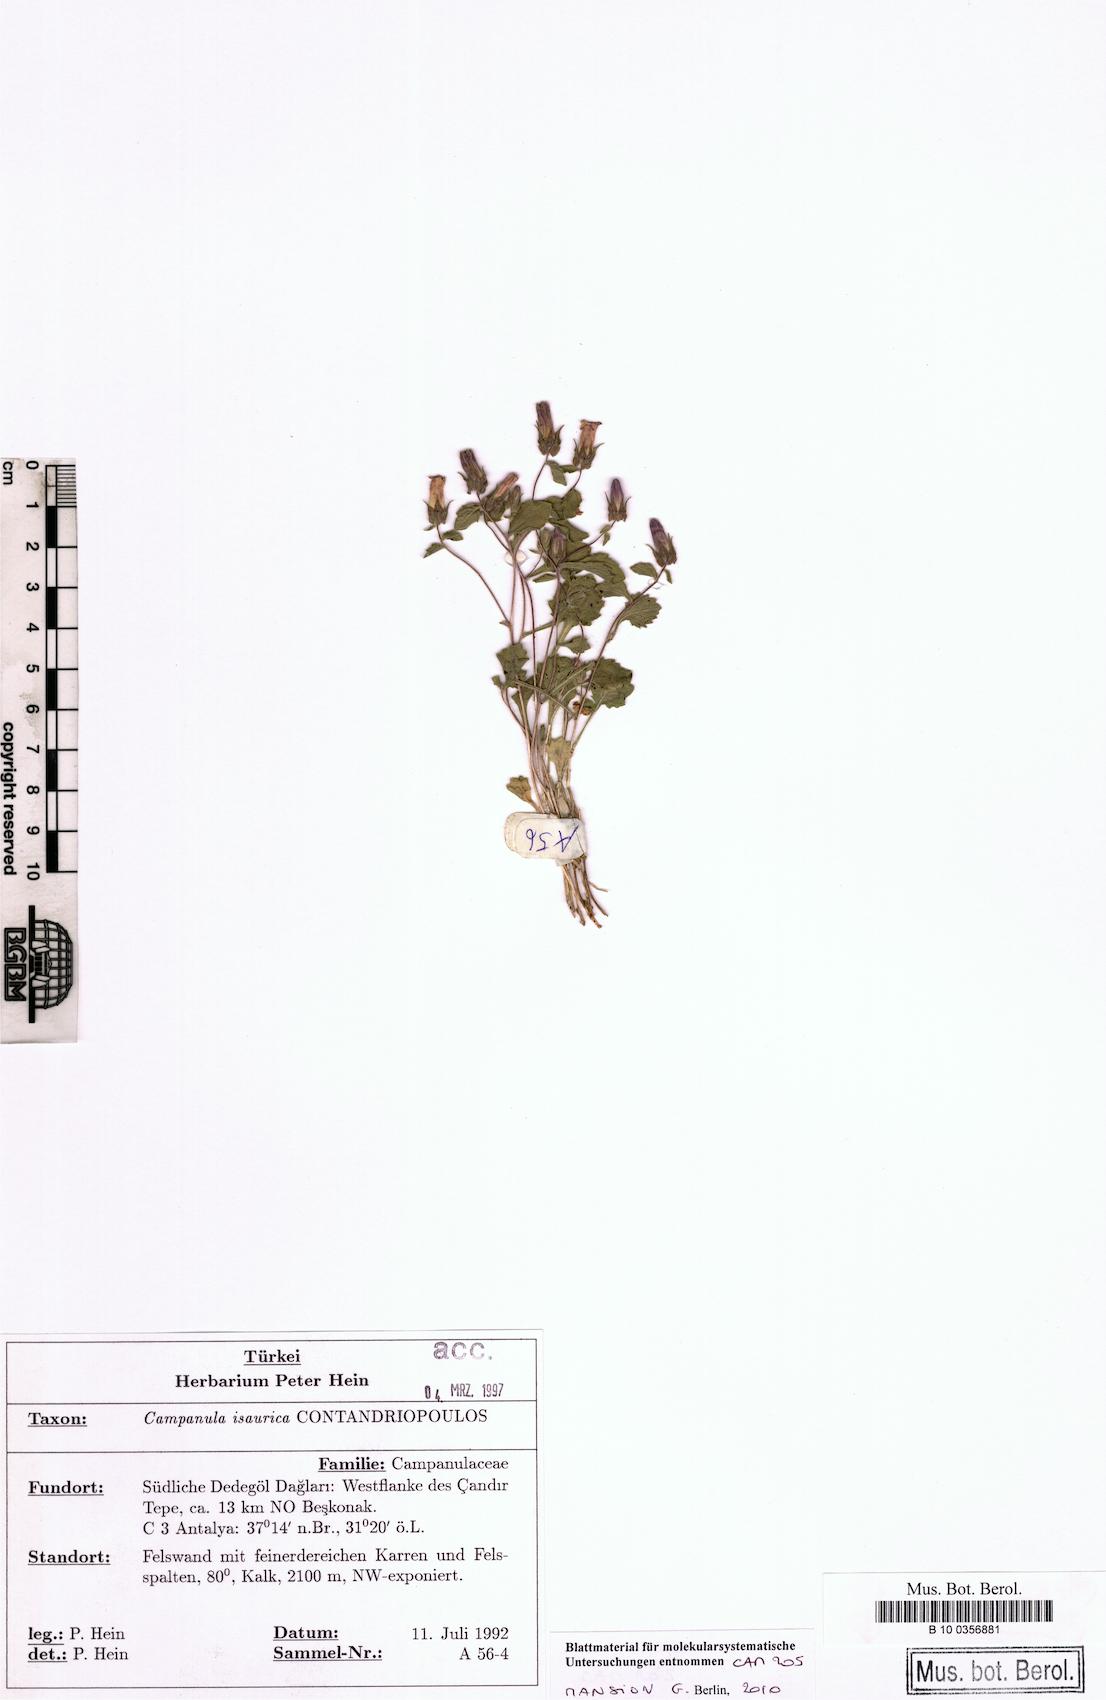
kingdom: Plantae
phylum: Tracheophyta
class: Magnoliopsida
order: Asterales
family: Campanulaceae
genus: Campanula
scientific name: Campanula isaurica
